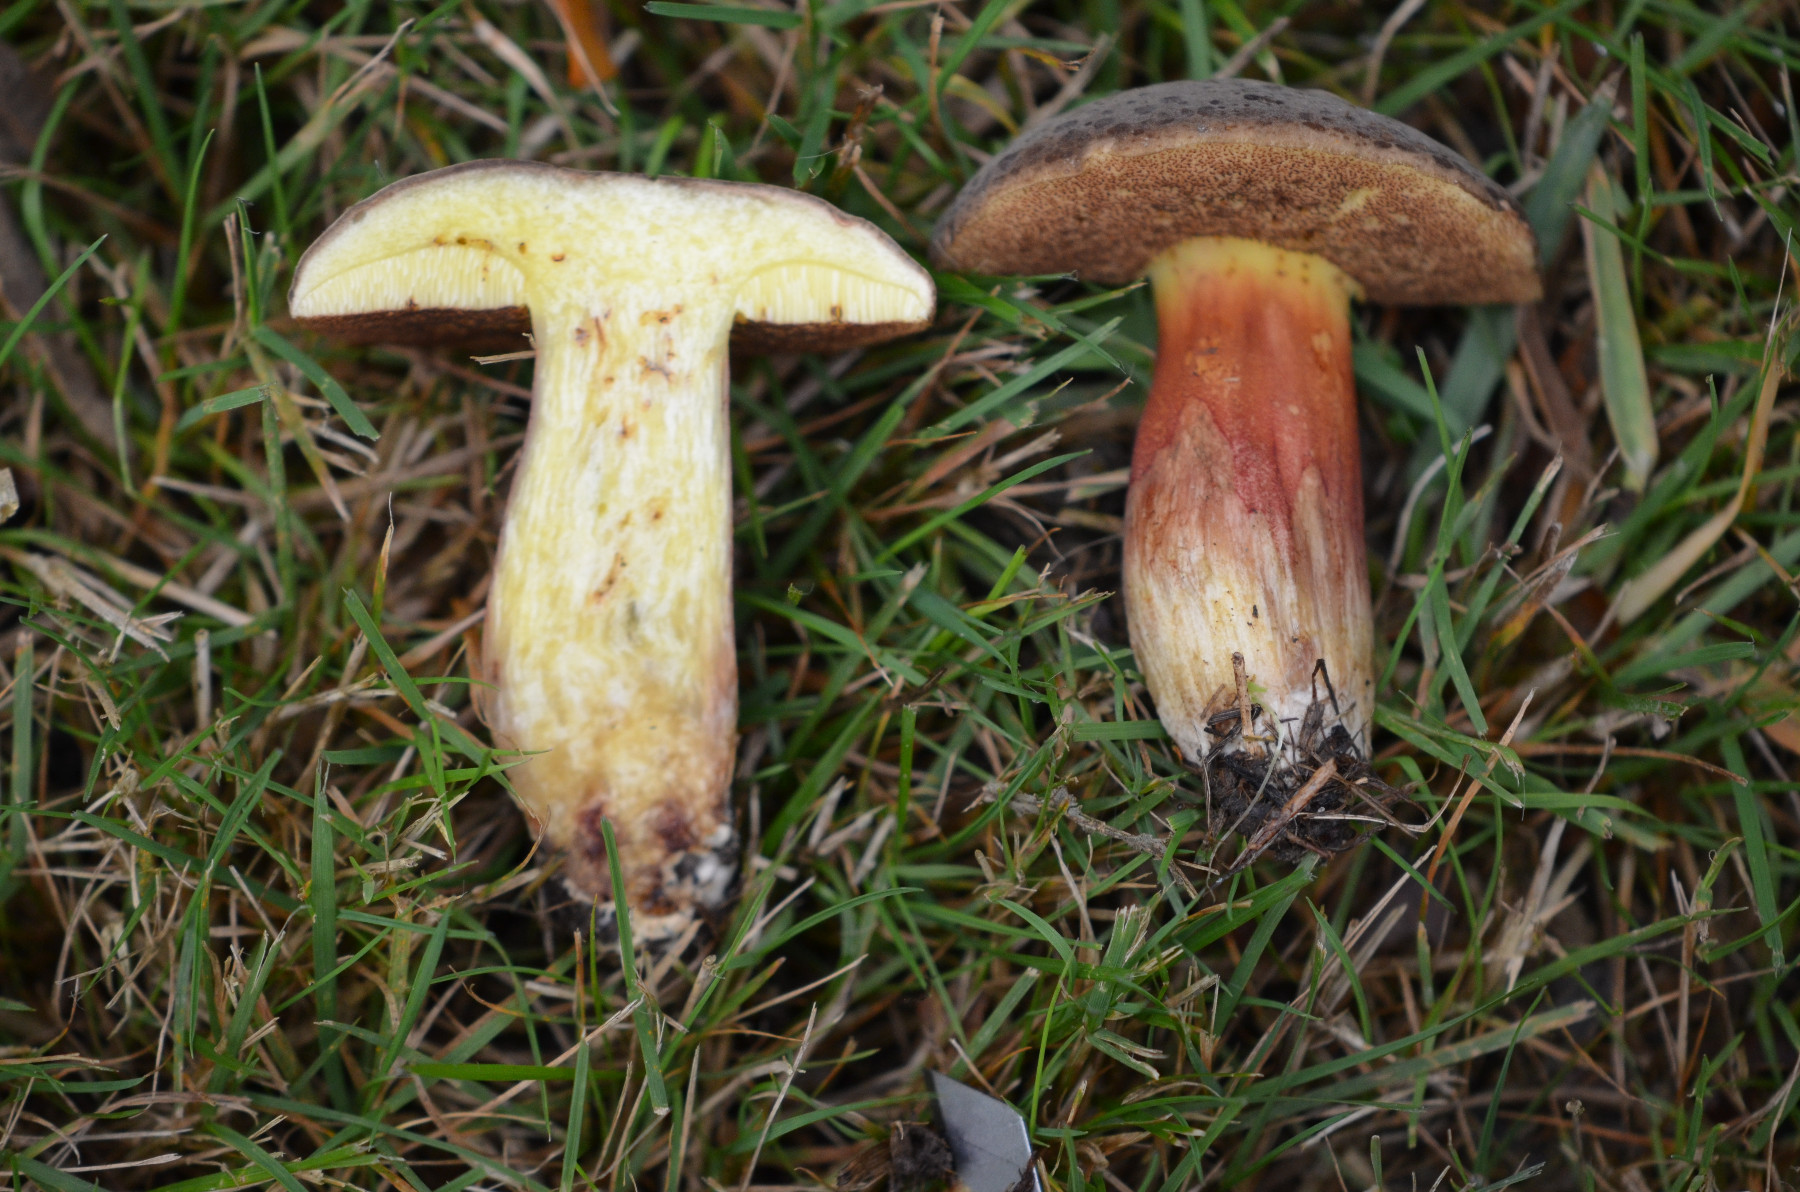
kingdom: Fungi
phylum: Basidiomycota
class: Agaricomycetes
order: Boletales
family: Boletaceae
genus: Xerocomellus
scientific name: Xerocomellus pruinatus
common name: dugget rørhat
